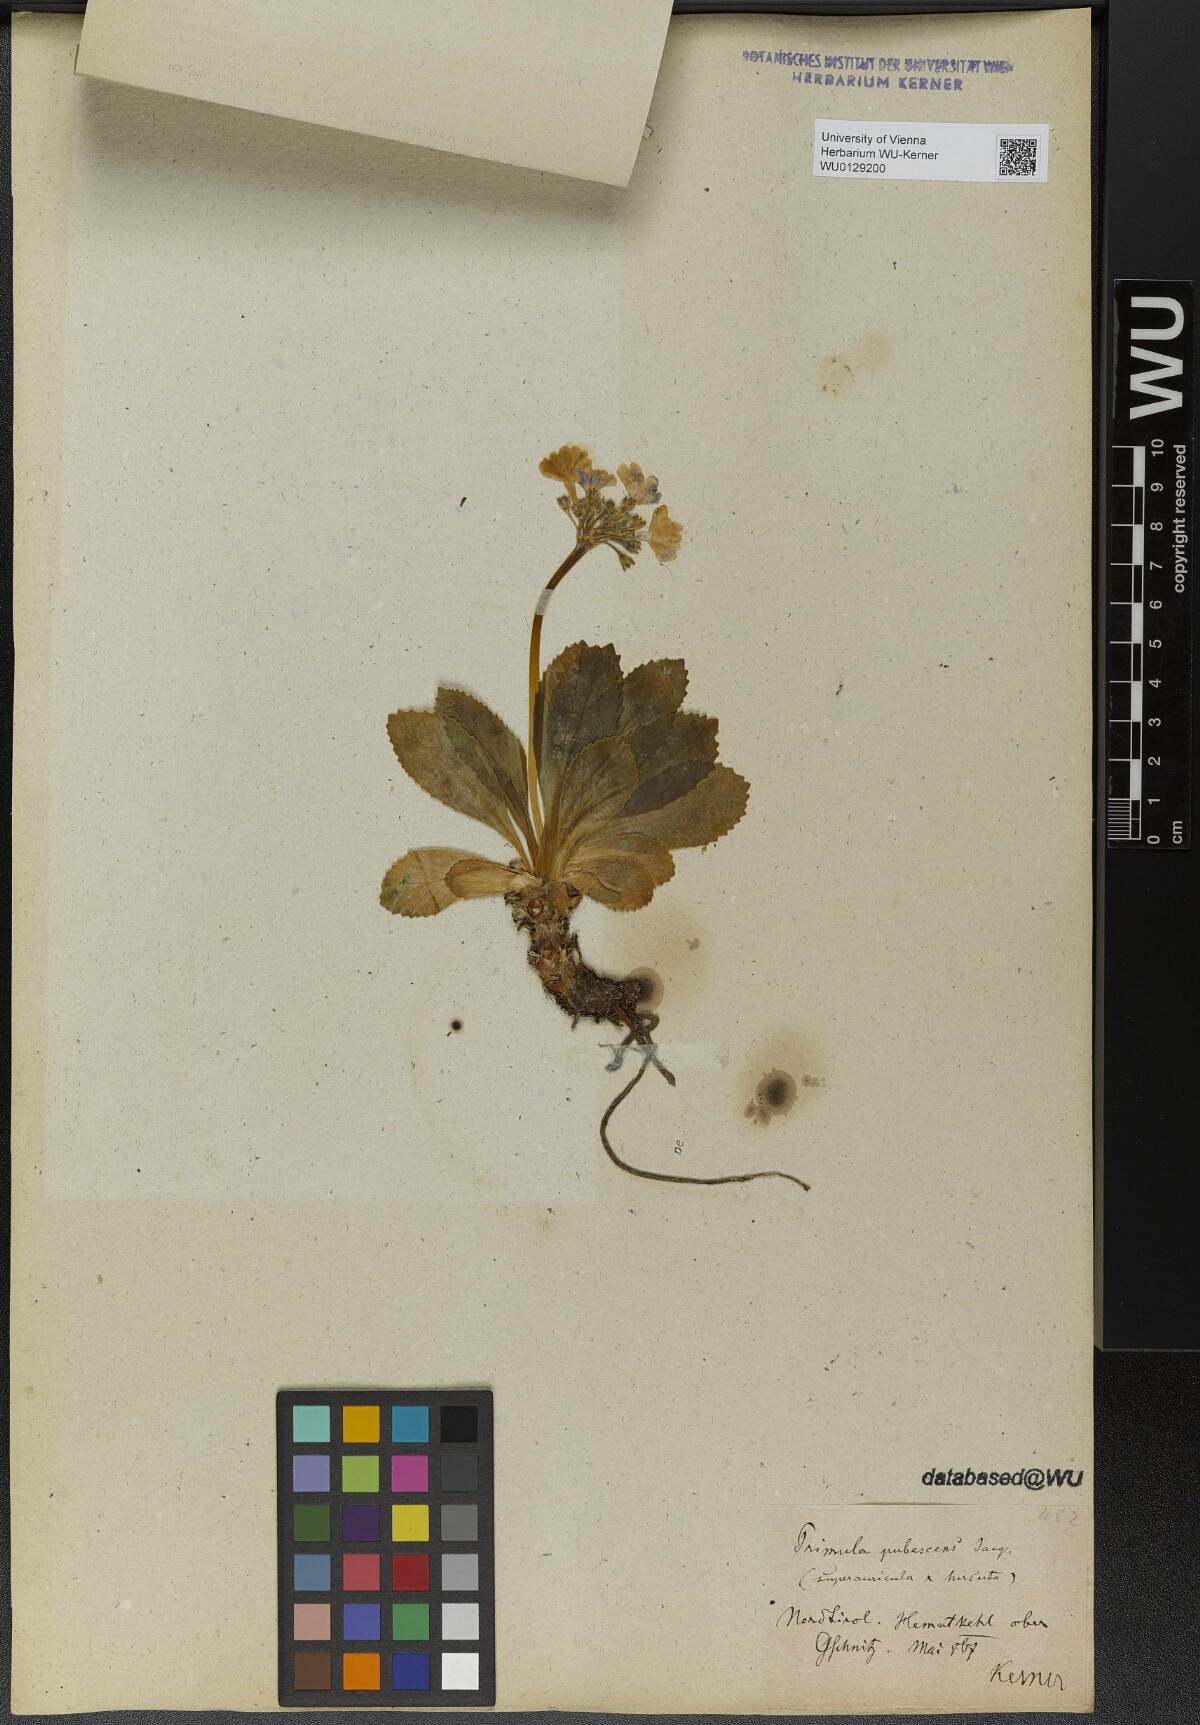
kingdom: Plantae
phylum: Tracheophyta
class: Magnoliopsida
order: Ericales
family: Primulaceae
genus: Primula
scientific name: Primula pubescens
